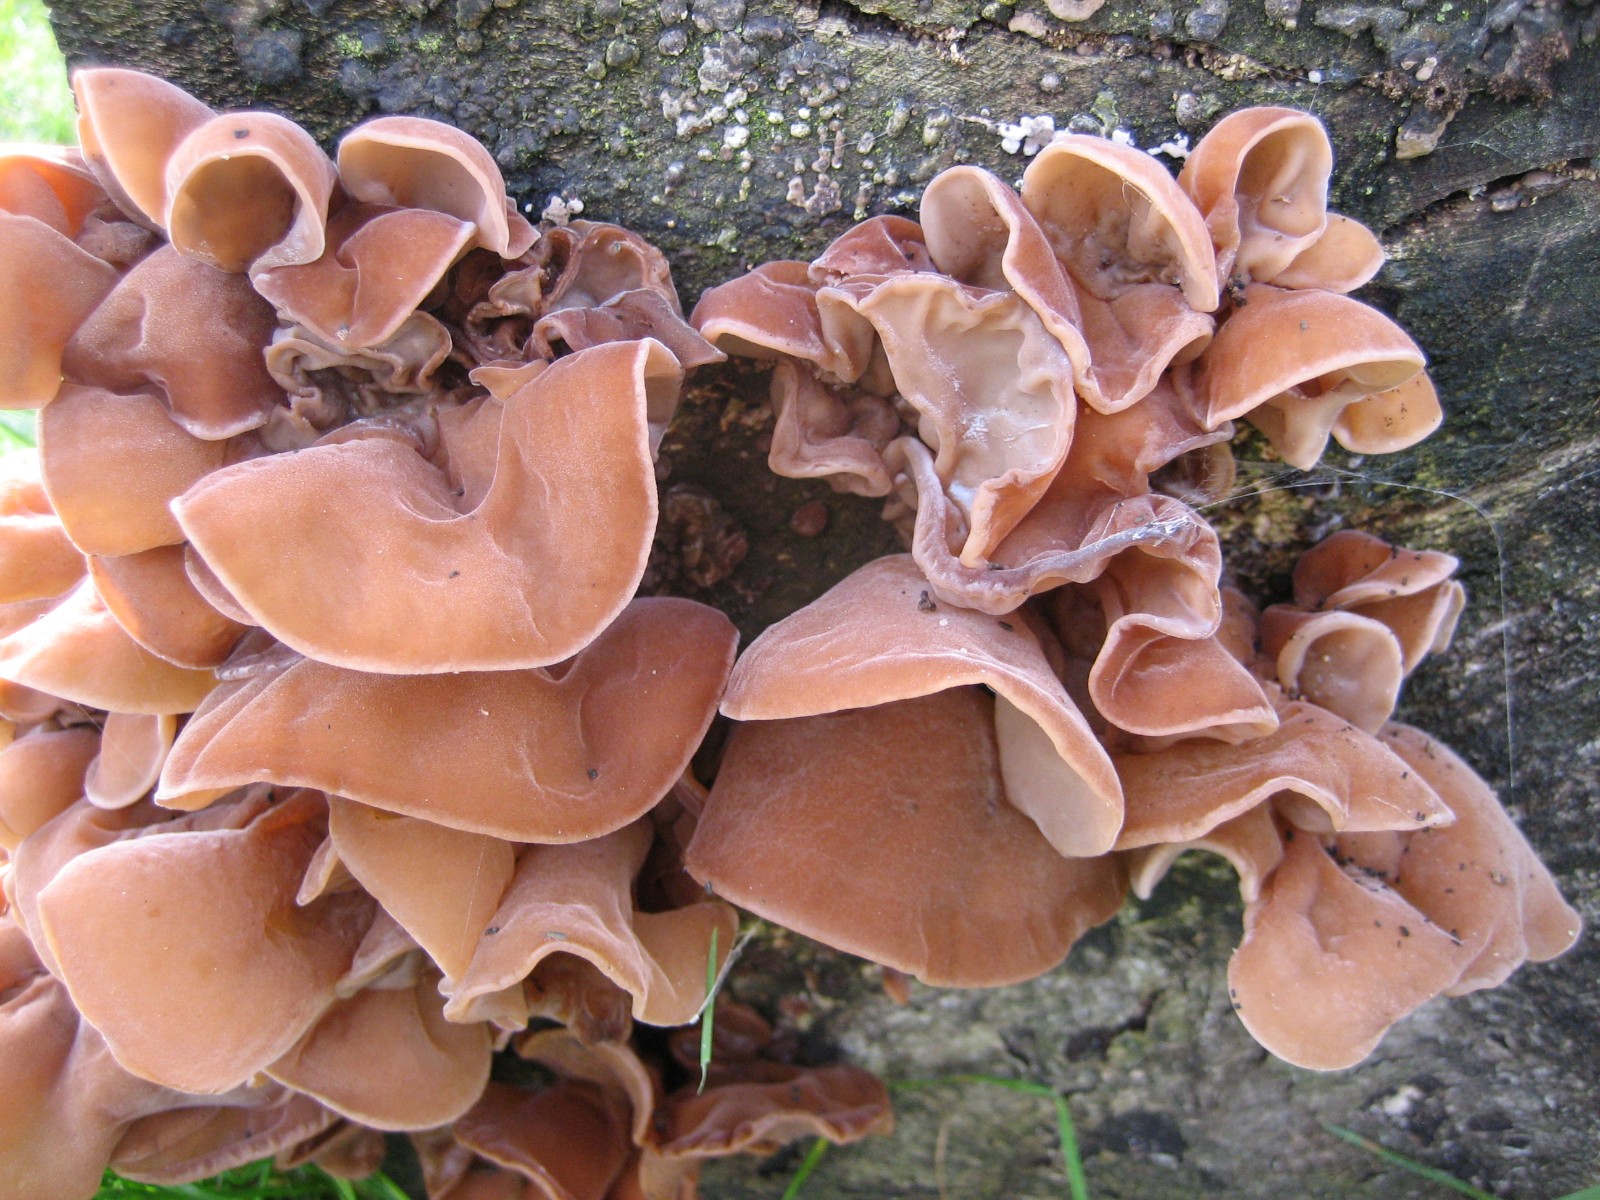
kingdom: Fungi
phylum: Basidiomycota
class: Agaricomycetes
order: Auriculariales
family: Auriculariaceae
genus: Auricularia
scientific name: Auricularia auricula-judae
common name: almindelig judasøre
